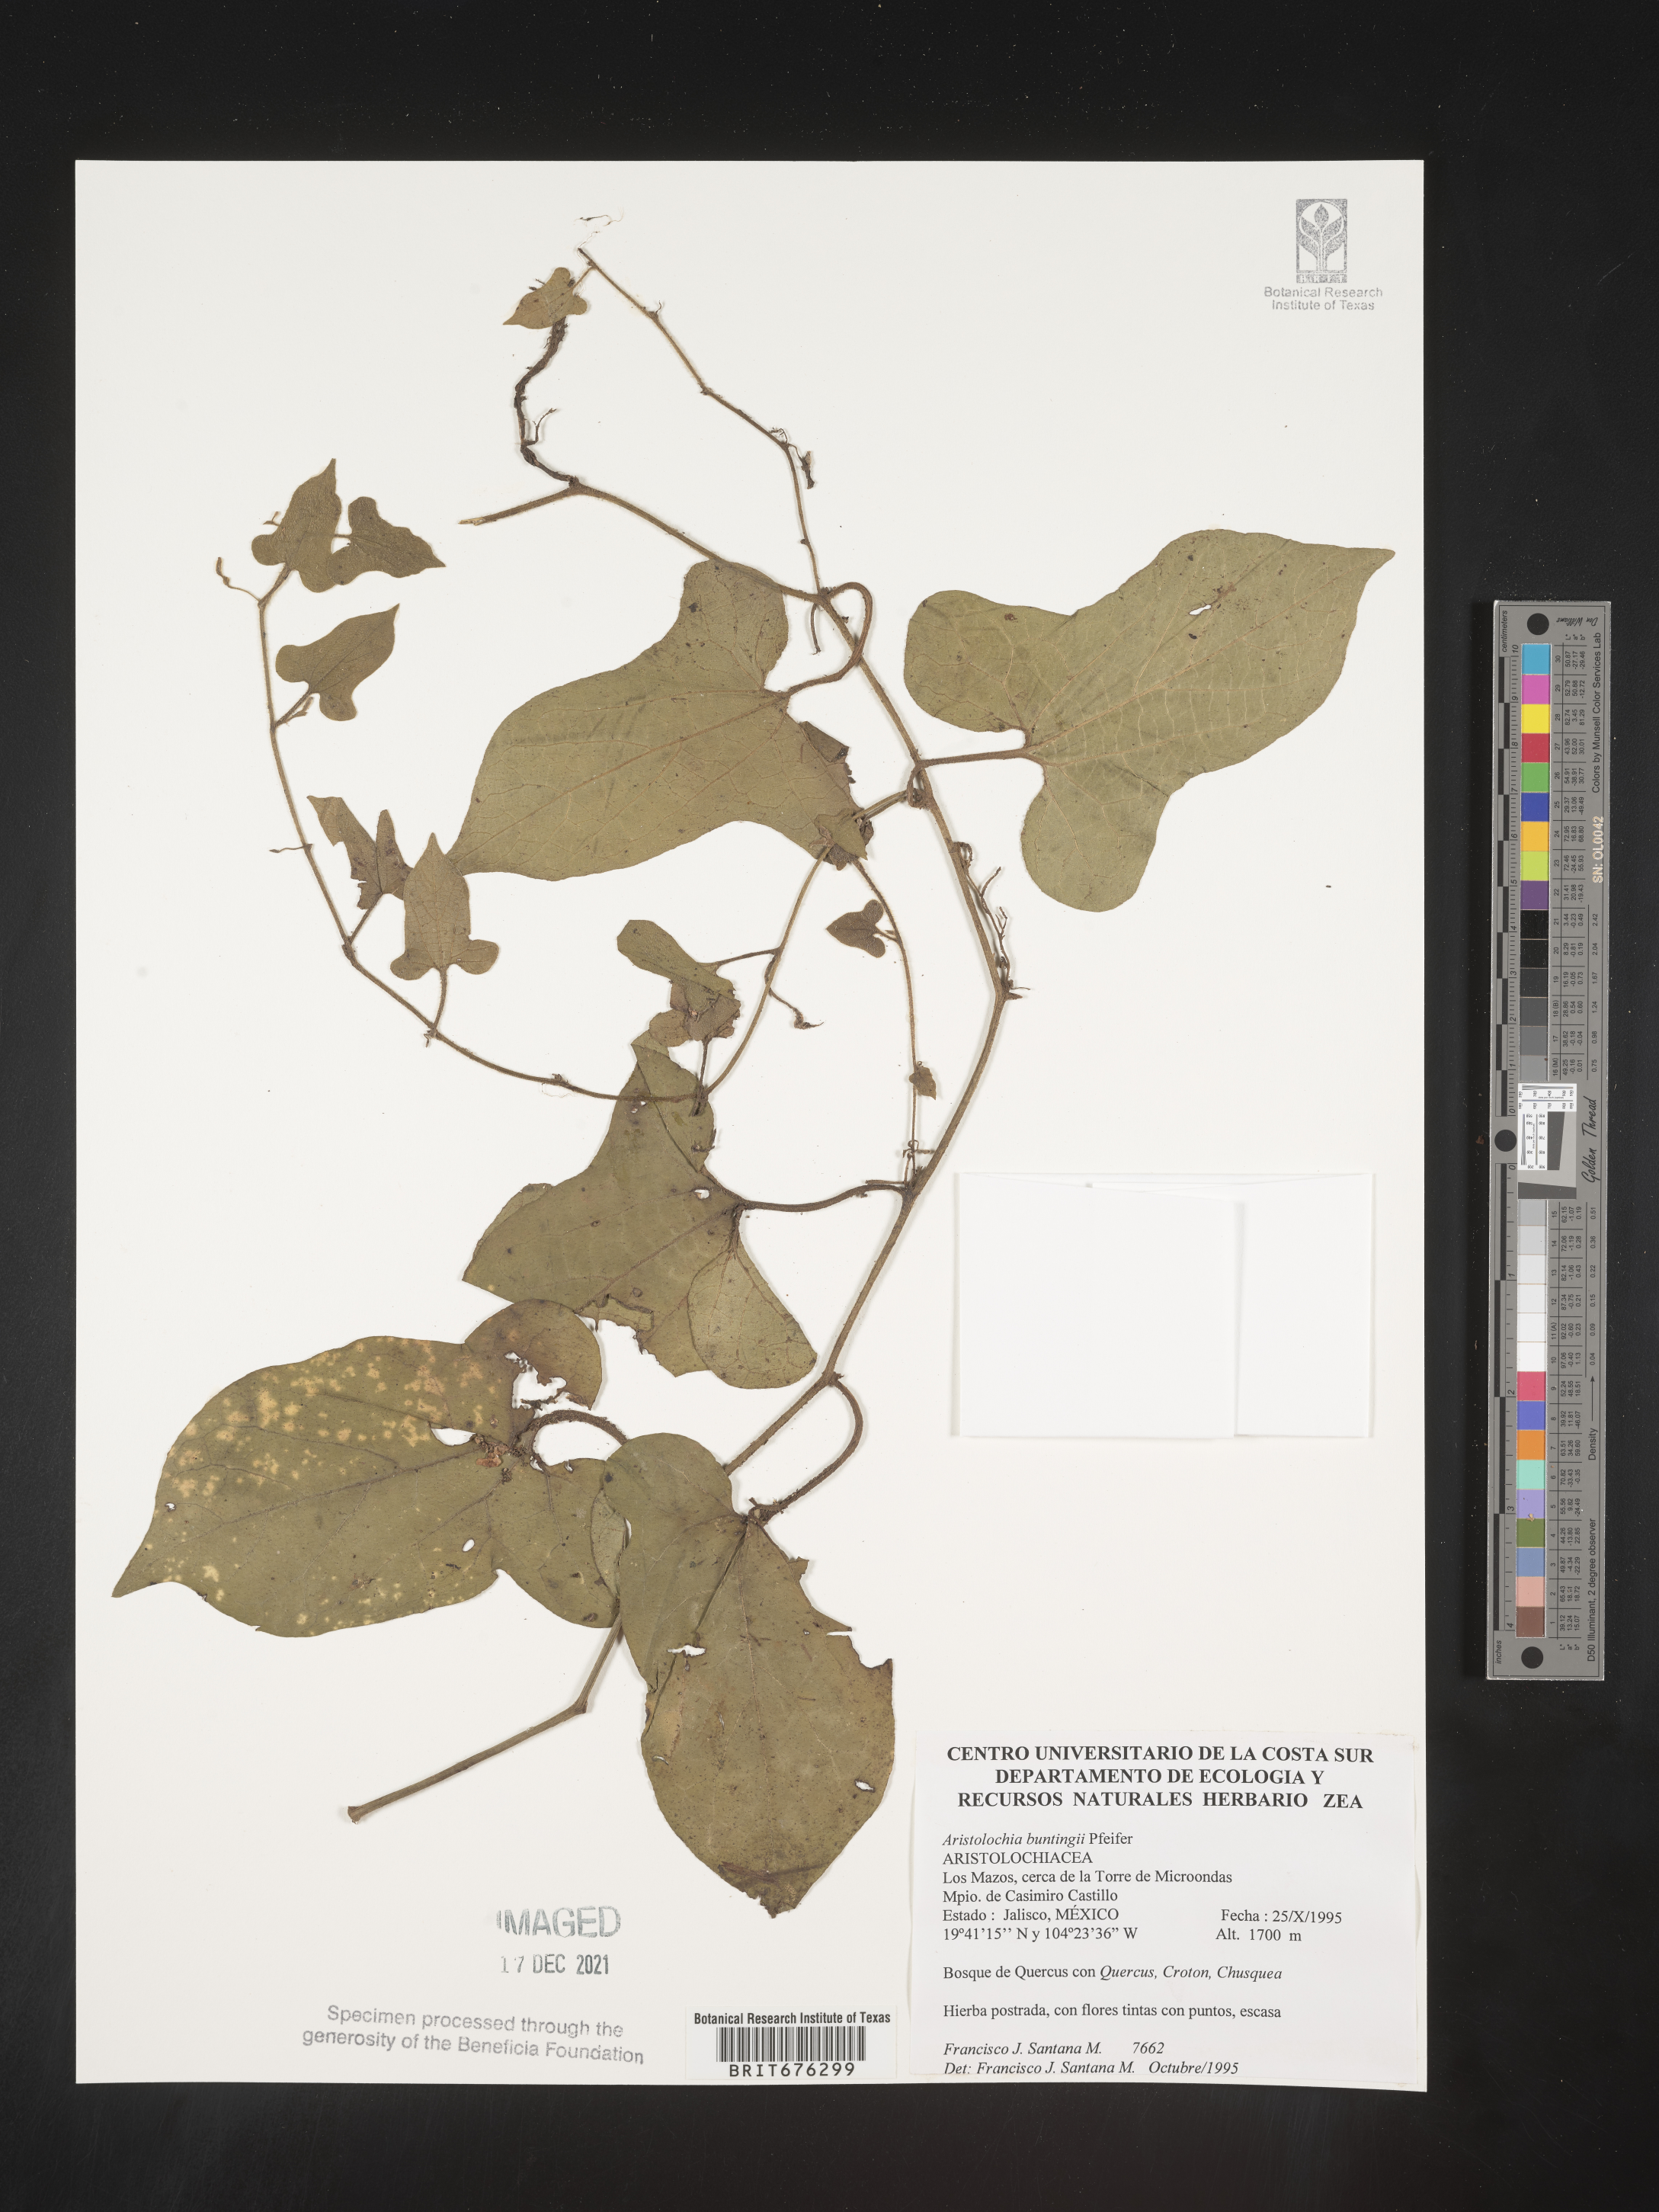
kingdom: Plantae
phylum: Tracheophyta
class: Magnoliopsida
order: Piperales
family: Aristolochiaceae
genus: Aristolochia
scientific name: Aristolochia
